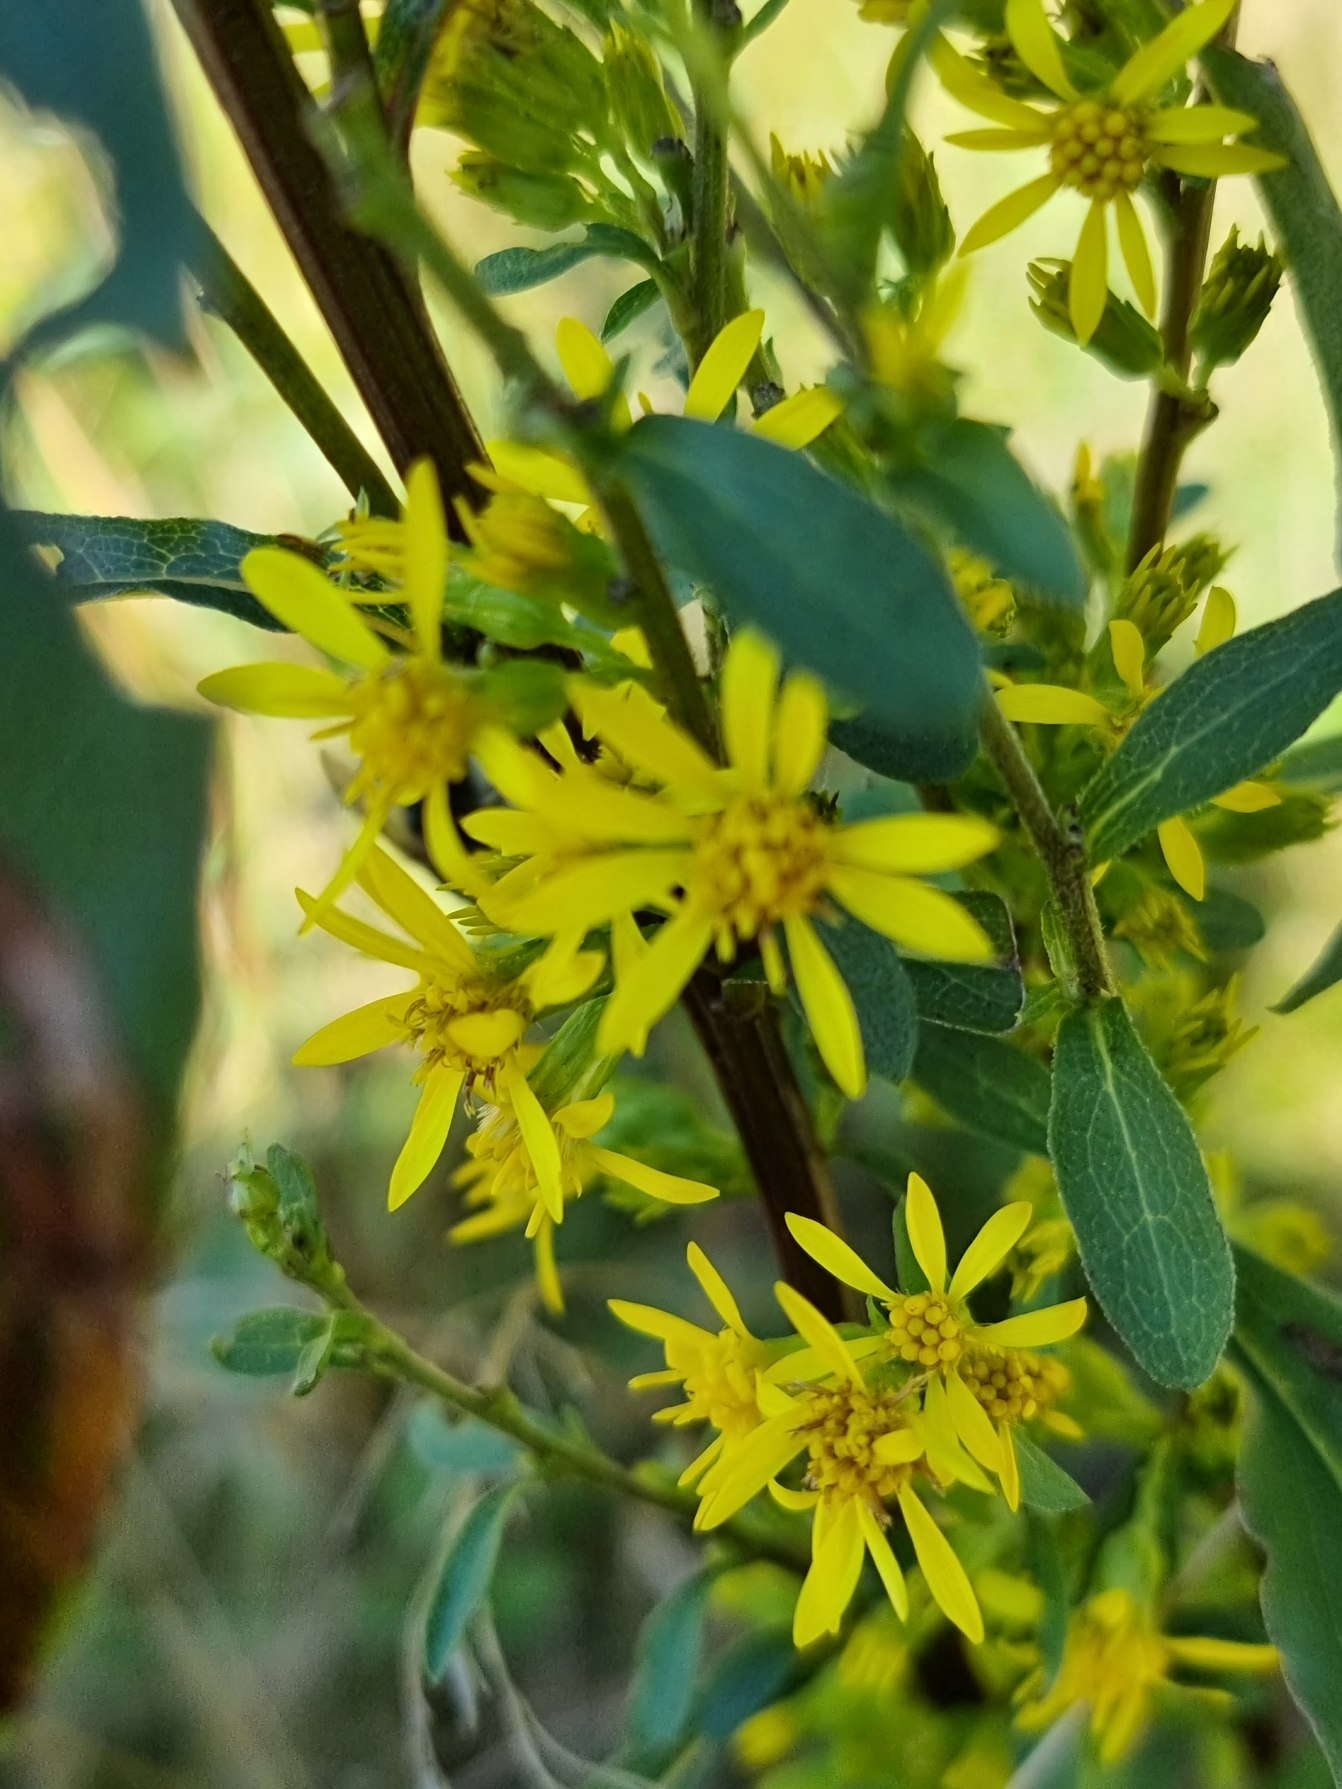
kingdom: Plantae
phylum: Tracheophyta
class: Magnoliopsida
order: Asterales
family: Asteraceae
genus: Solidago
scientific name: Solidago virgaurea
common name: Almindelig gyldenris
